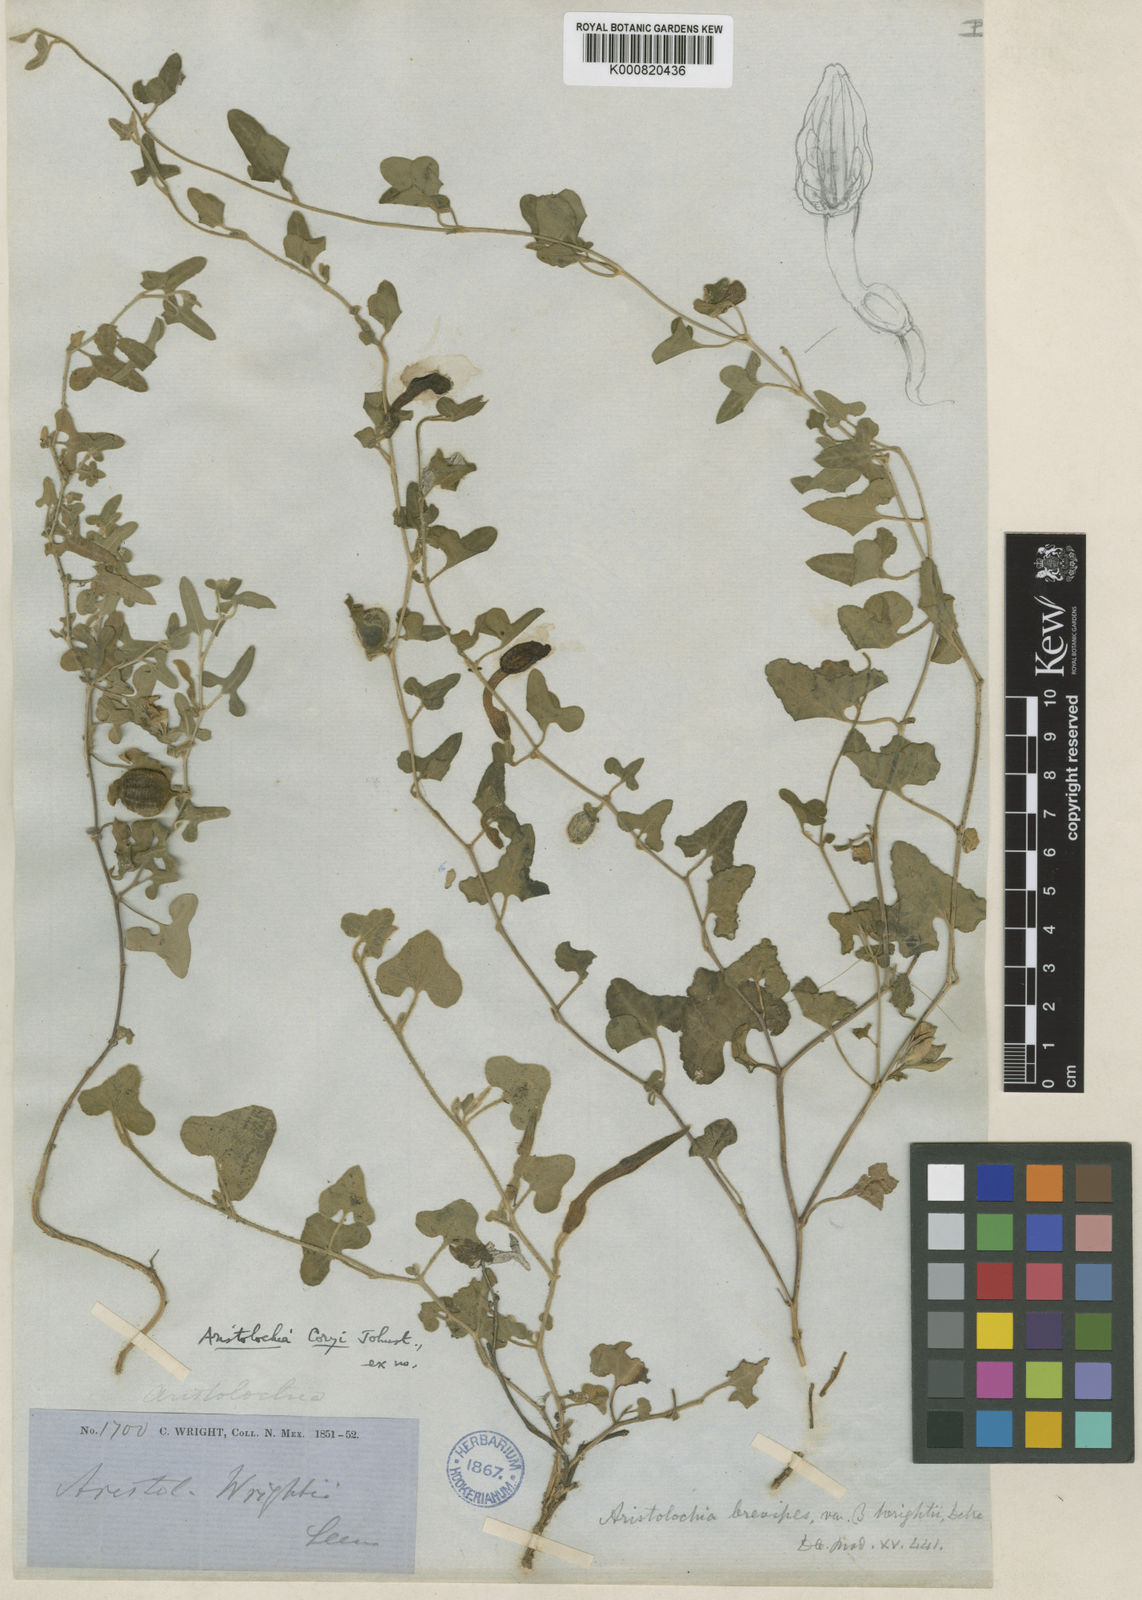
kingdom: Plantae
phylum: Tracheophyta
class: Magnoliopsida
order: Piperales
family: Aristolochiaceae
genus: Aristolochia
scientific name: Aristolochia coryi
